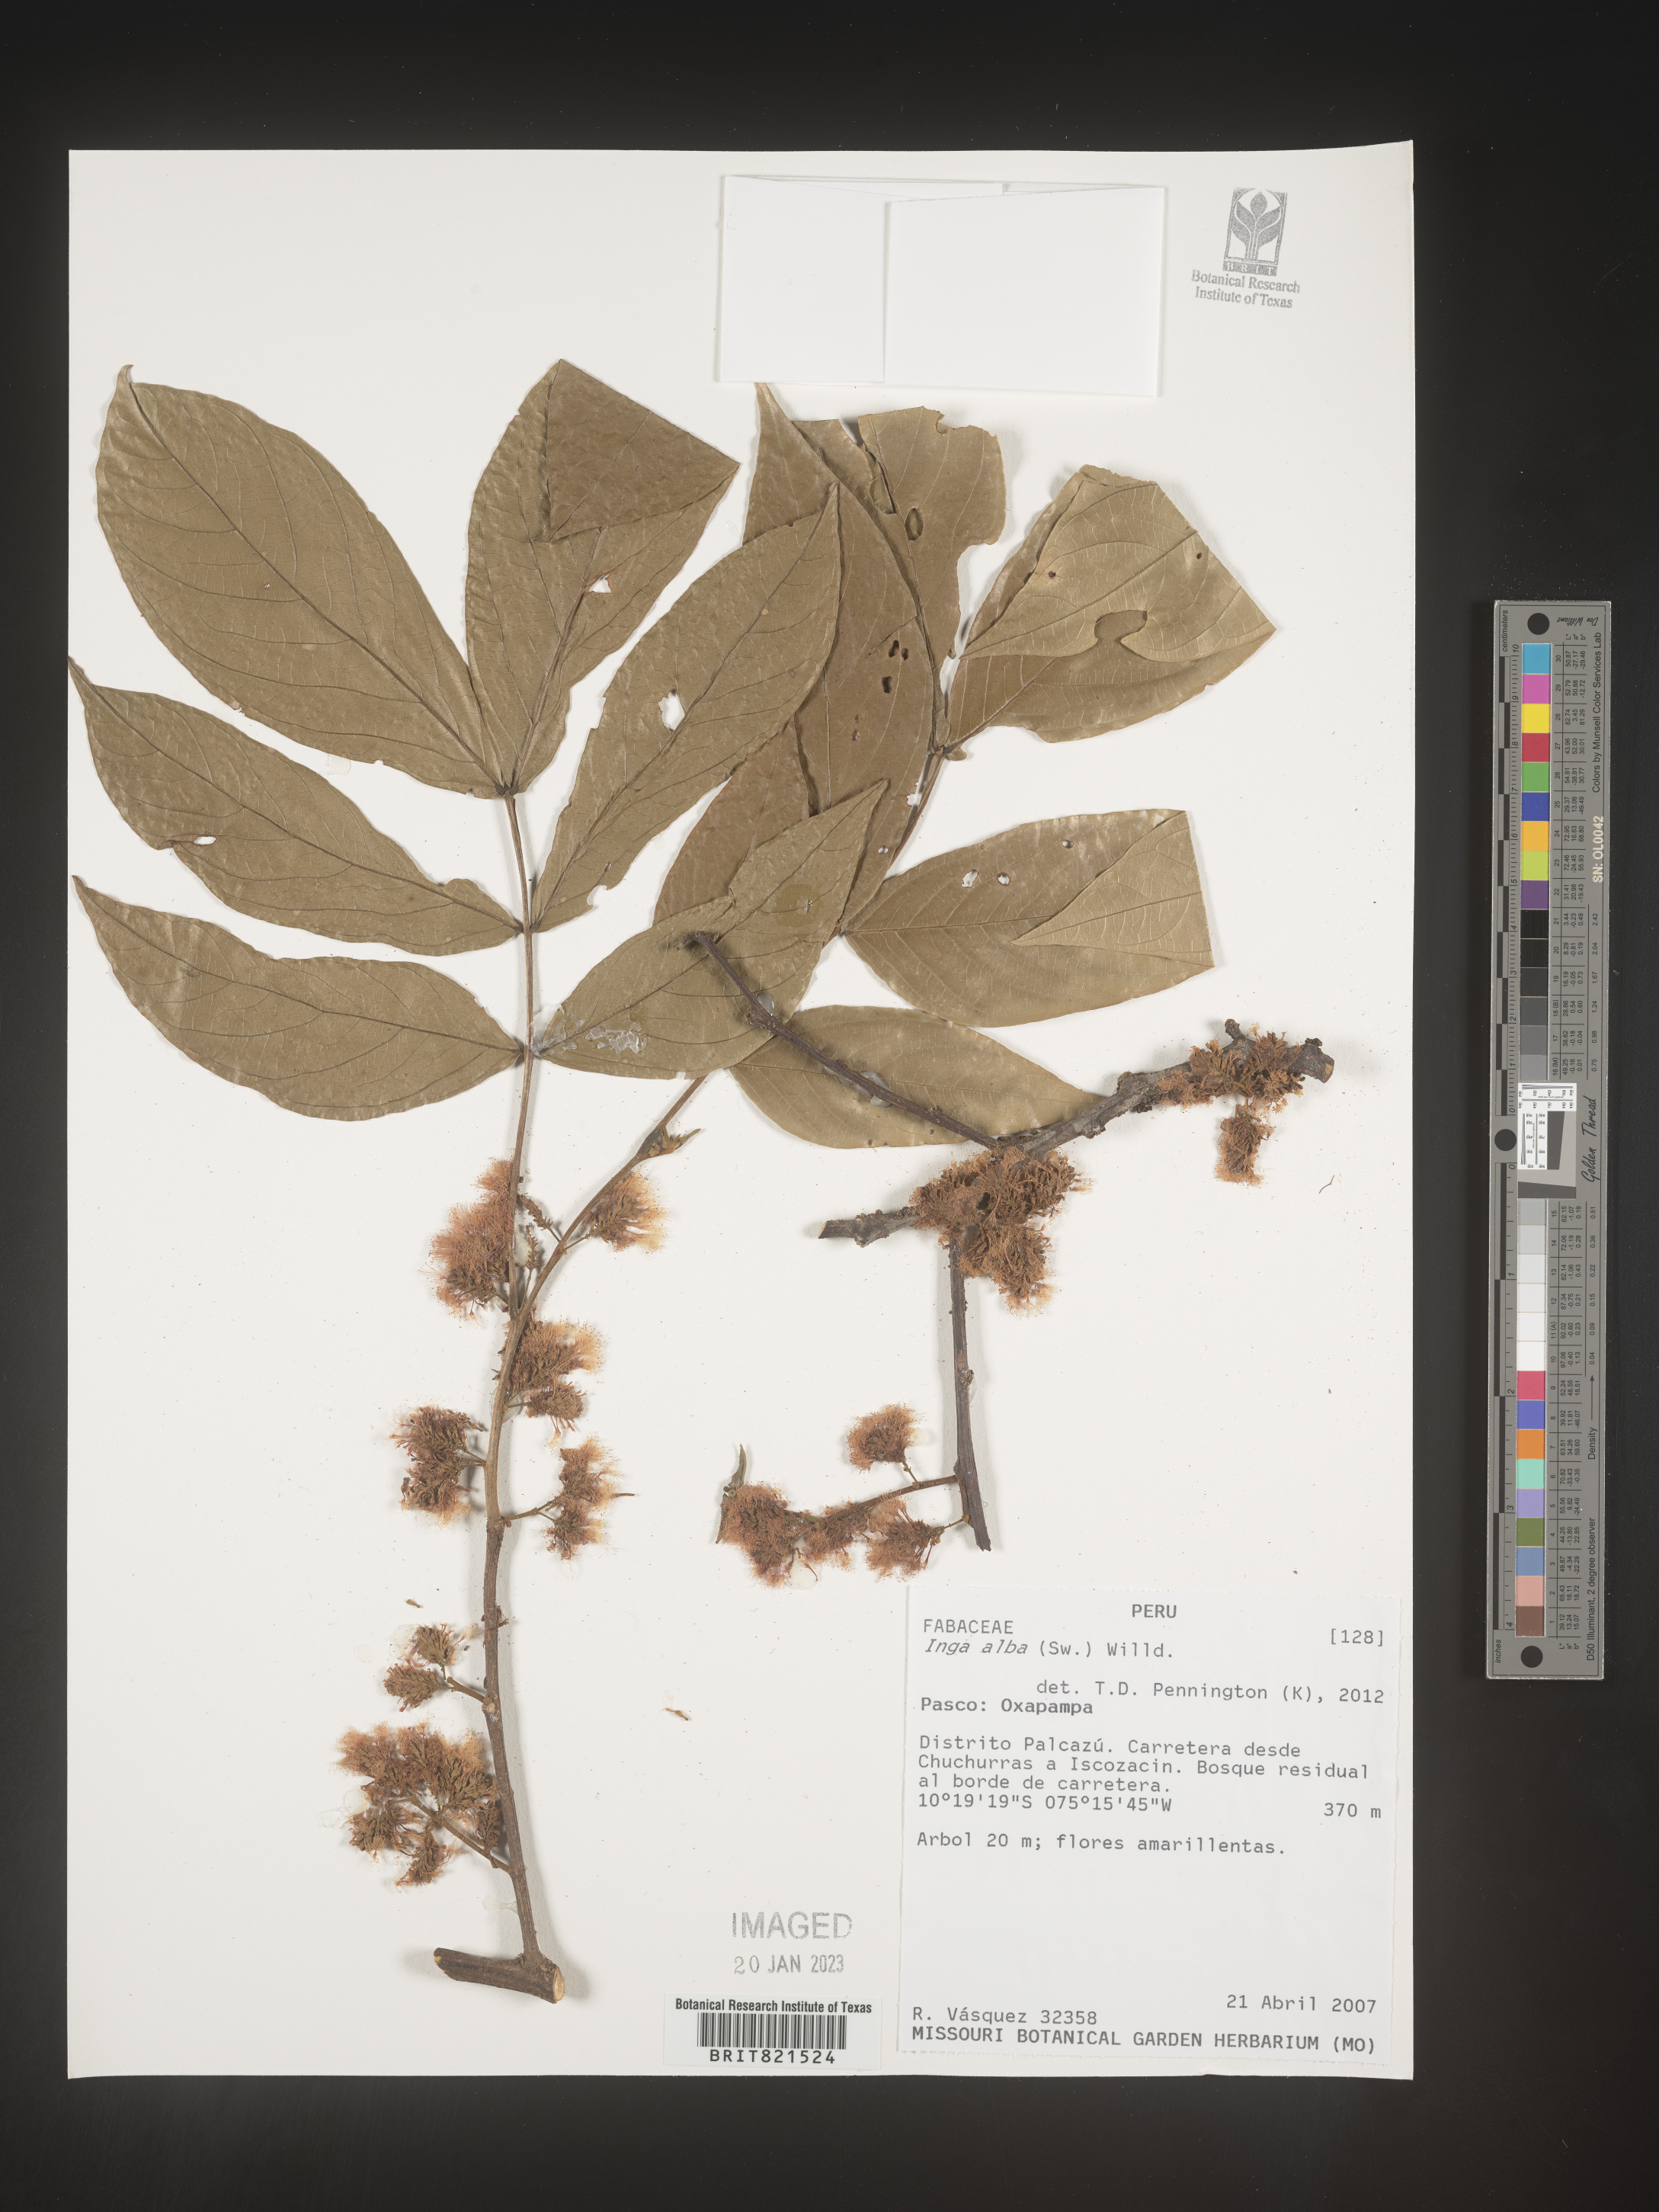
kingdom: Plantae
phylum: Tracheophyta
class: Magnoliopsida
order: Fabales
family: Fabaceae
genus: Inga
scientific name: Inga
